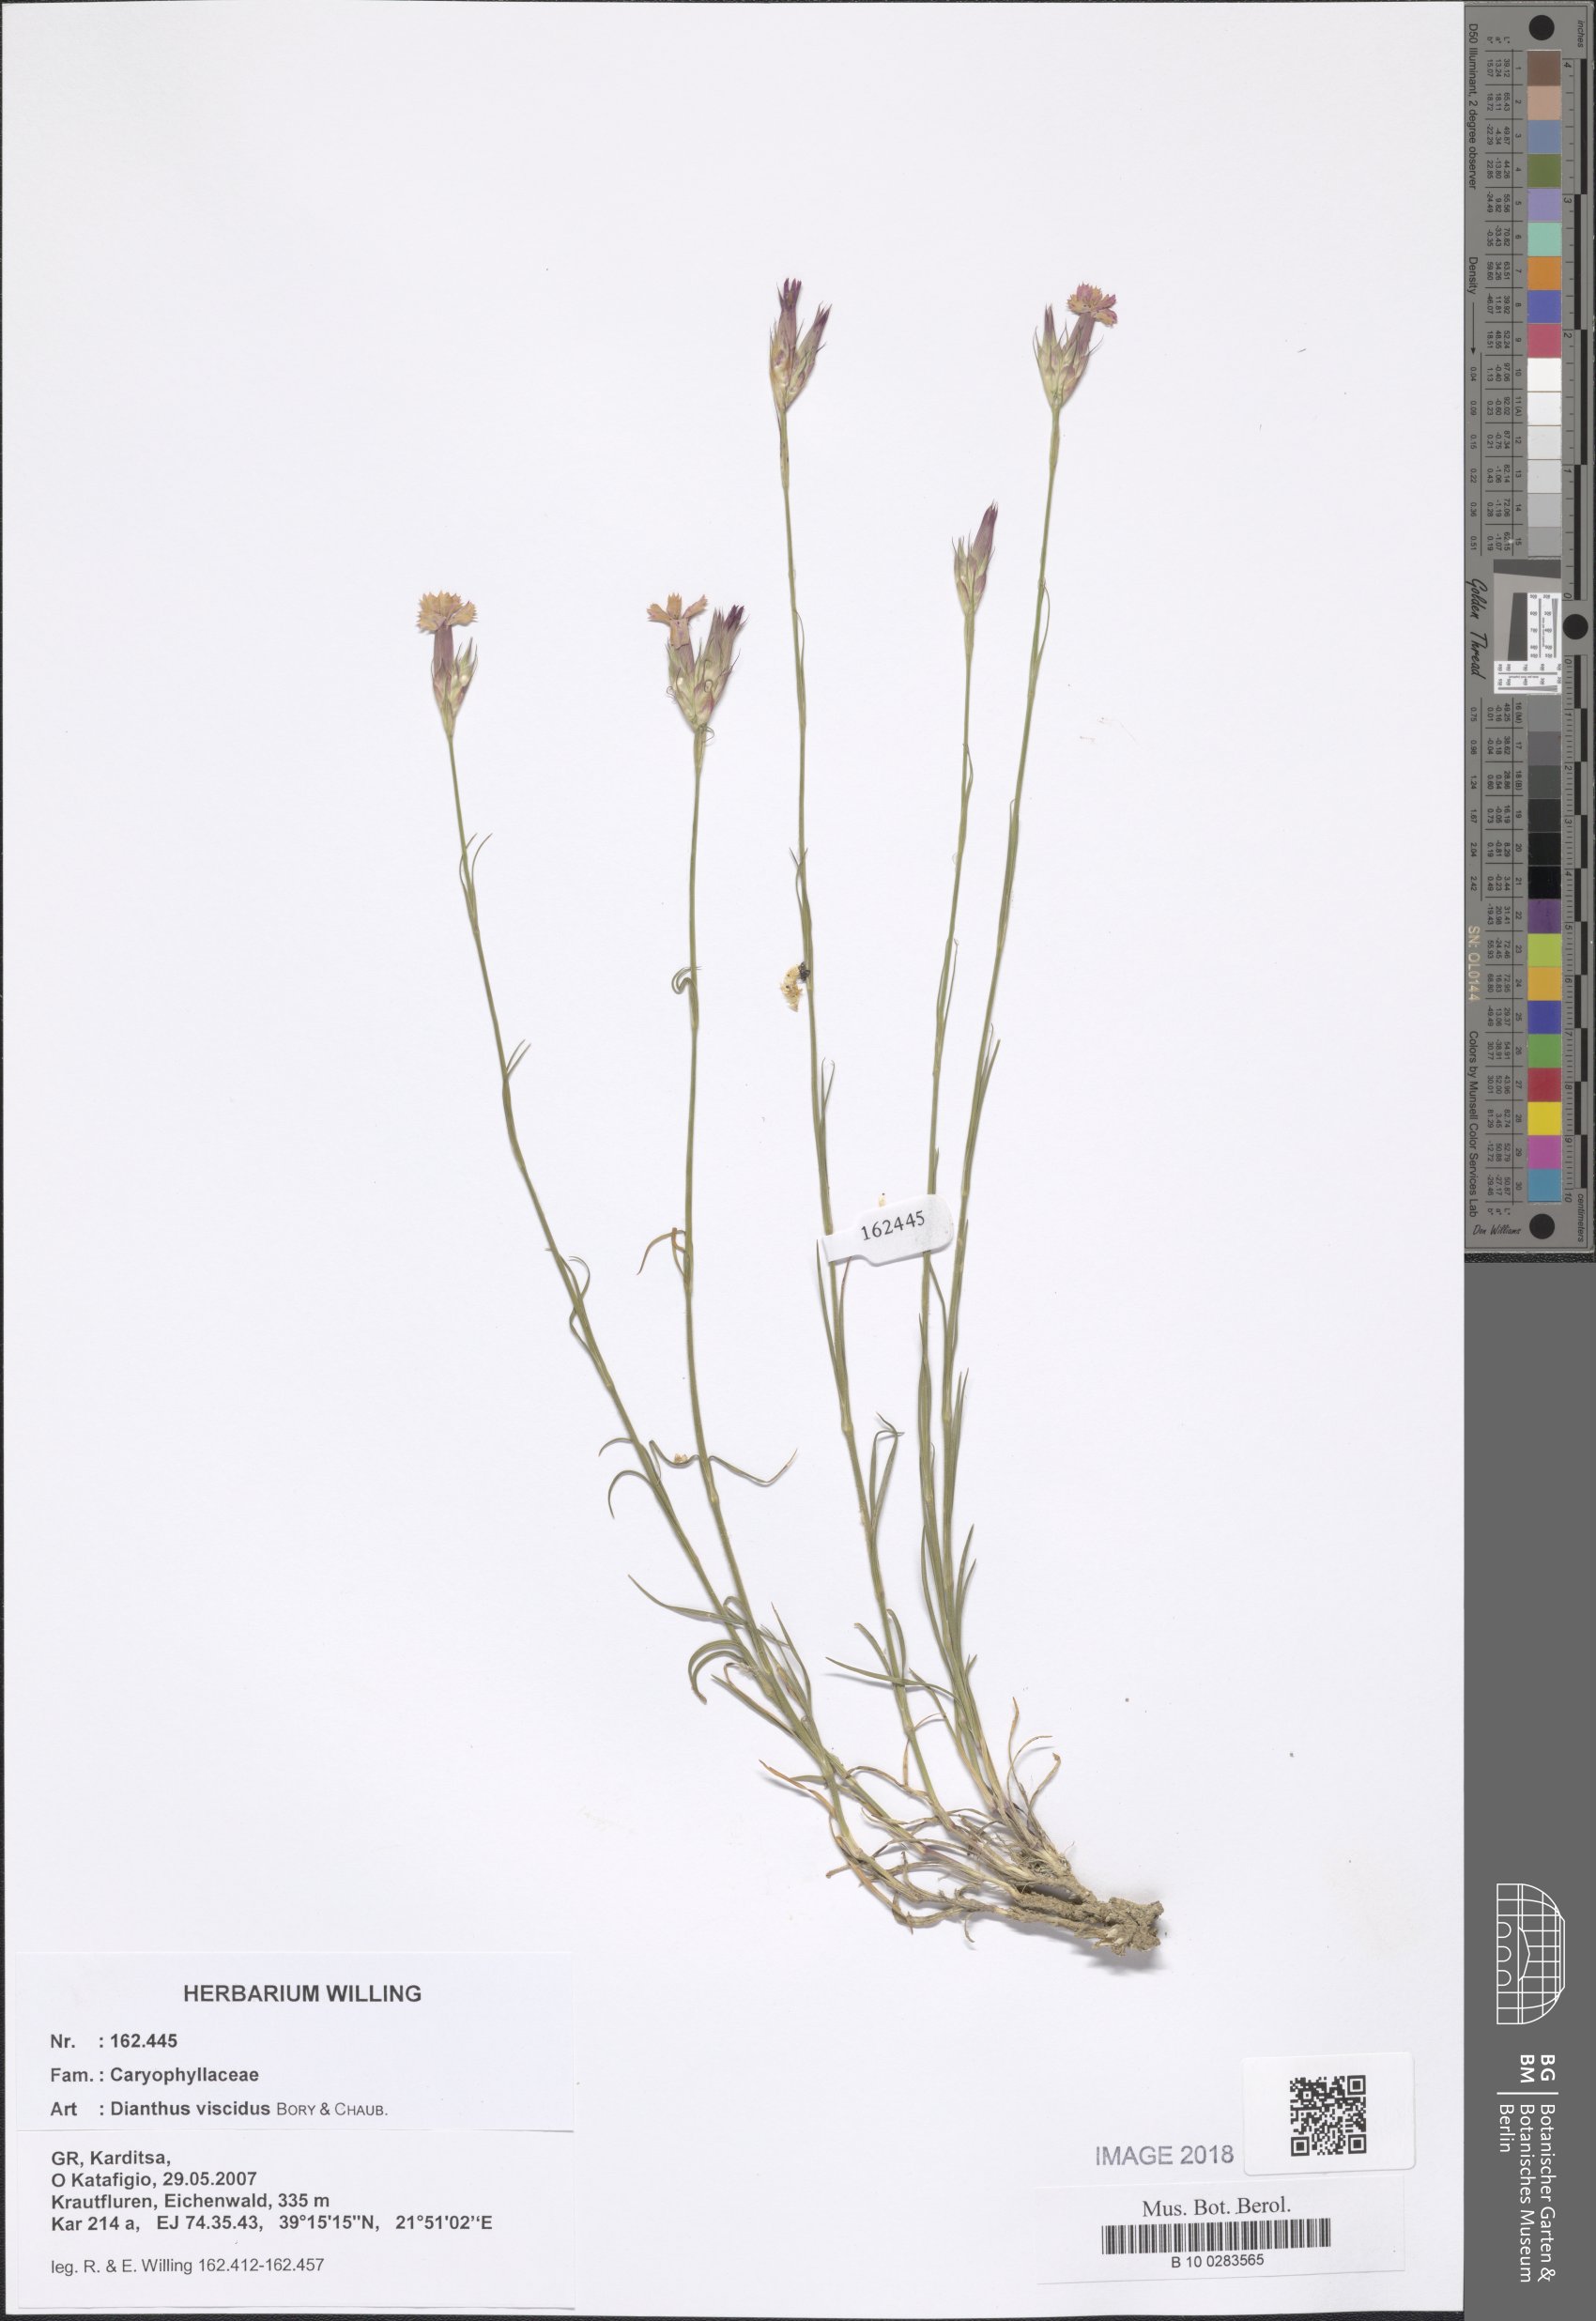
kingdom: Plantae
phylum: Tracheophyta
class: Magnoliopsida
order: Caryophyllales
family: Caryophyllaceae
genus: Dianthus
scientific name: Dianthus viscidus
